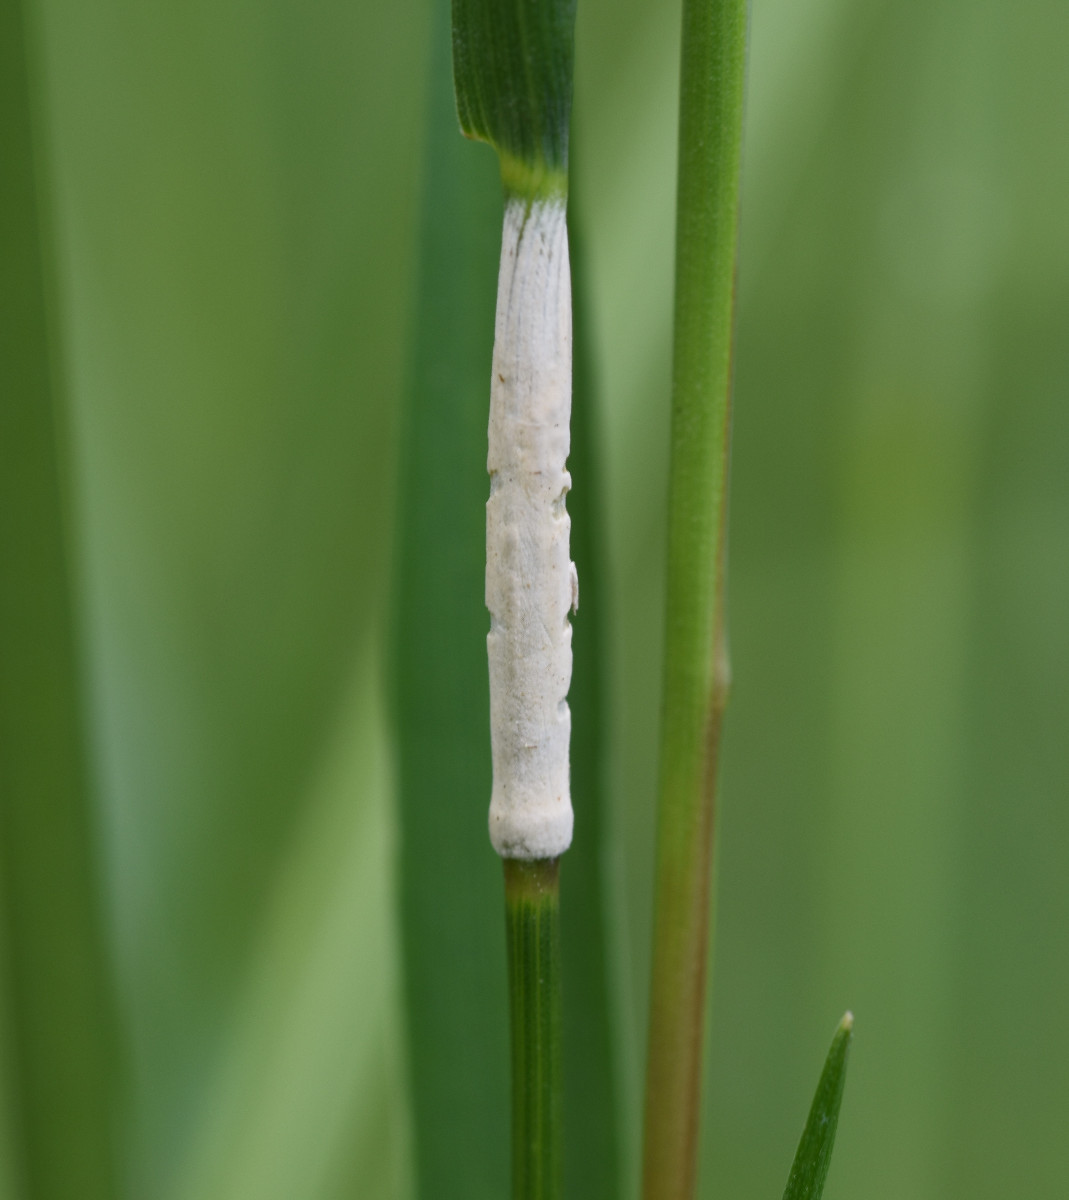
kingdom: Fungi
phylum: Ascomycota
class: Sordariomycetes
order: Hypocreales
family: Clavicipitaceae
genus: Epichloe
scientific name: Epichloe typhina
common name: almindelig kernerør
